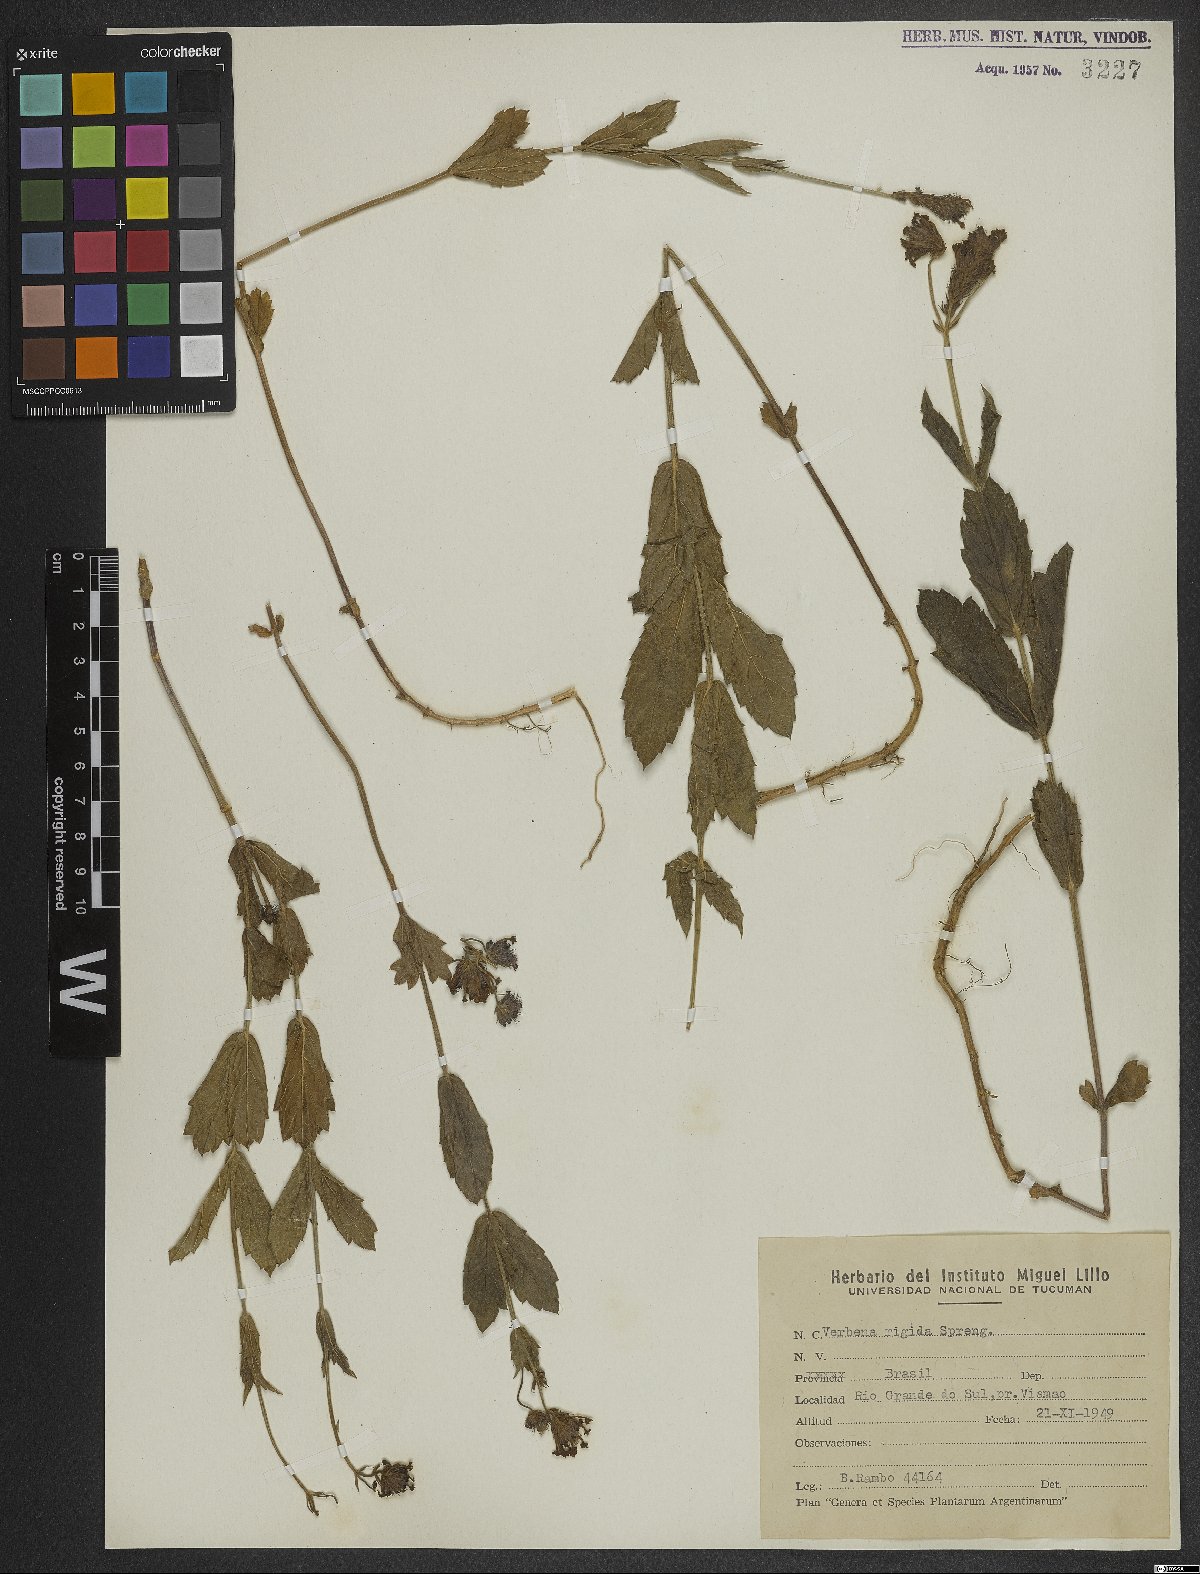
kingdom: Plantae
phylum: Tracheophyta
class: Magnoliopsida
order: Lamiales
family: Verbenaceae
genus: Verbena
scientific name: Verbena rigida
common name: Slender vervain
